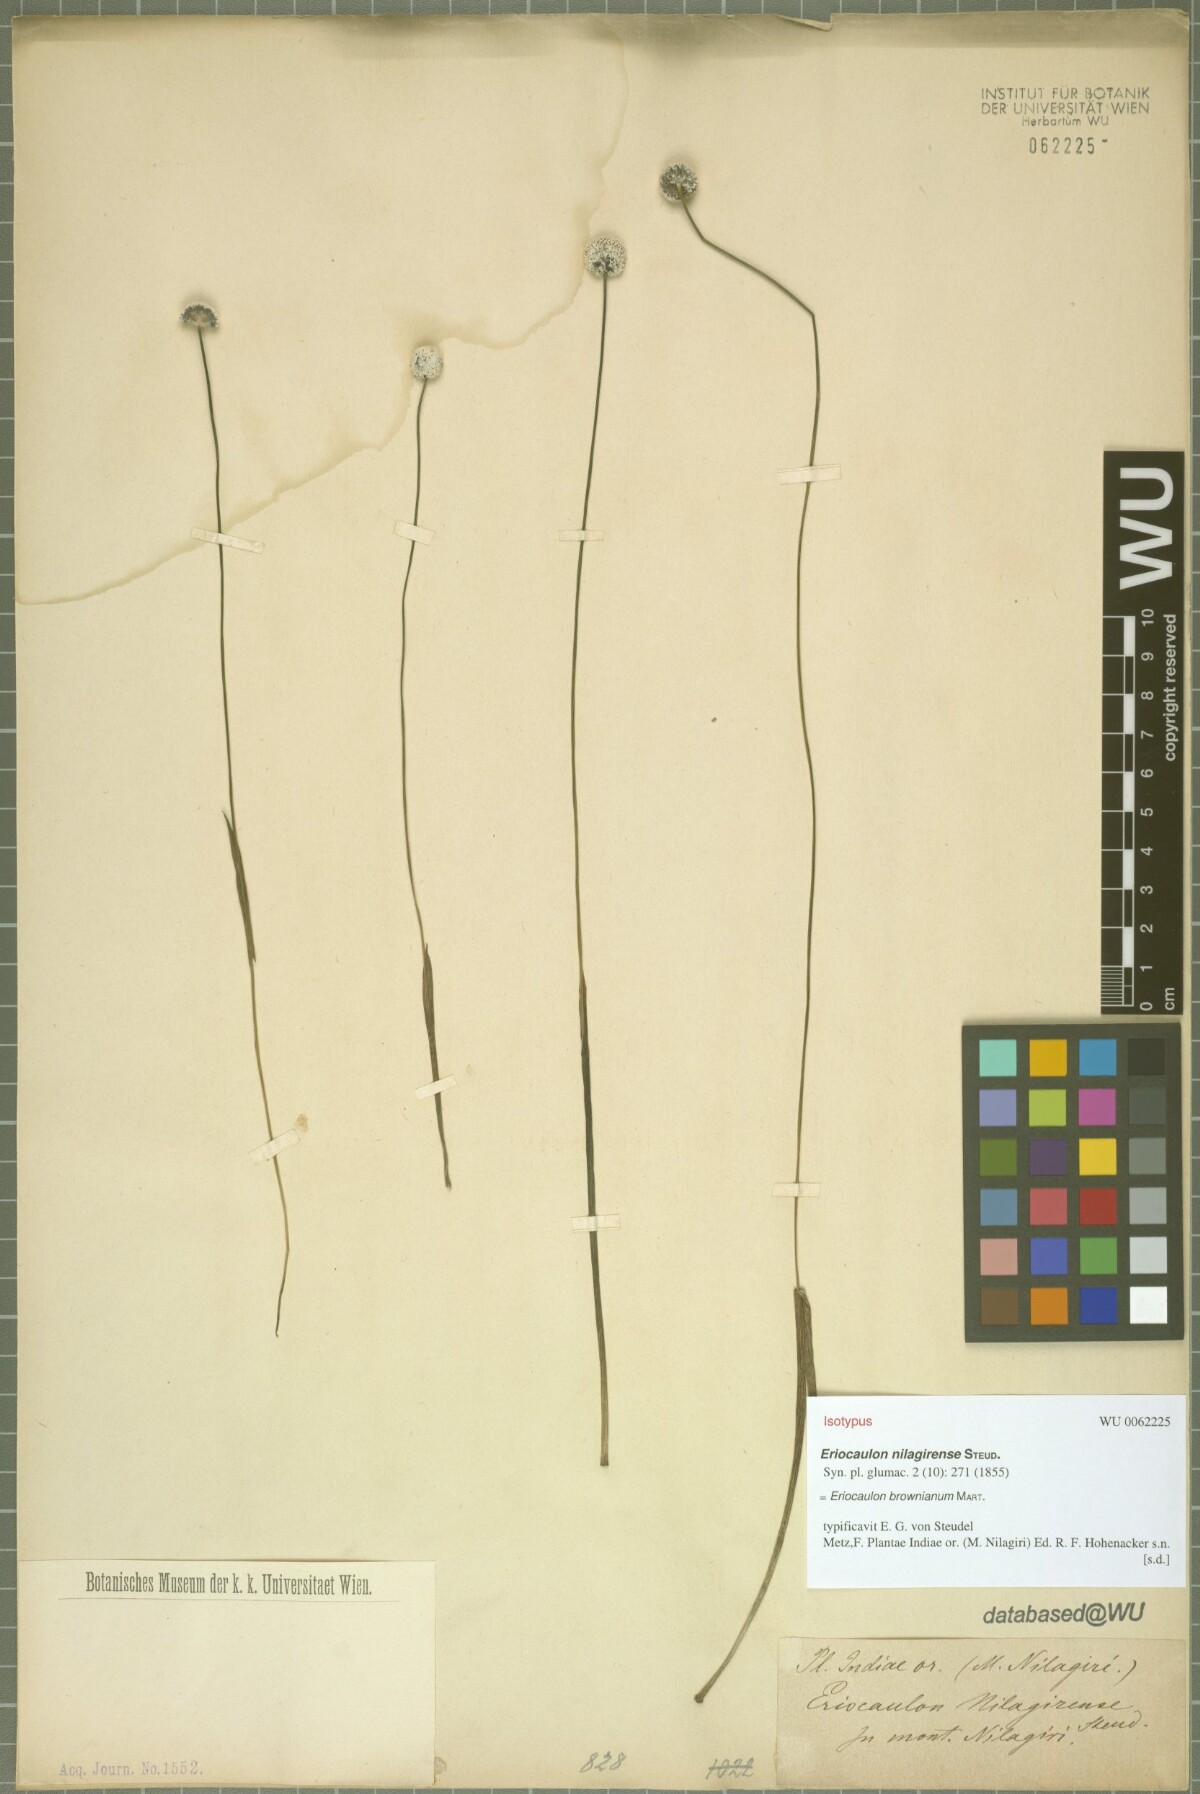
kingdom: Plantae
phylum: Tracheophyta
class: Liliopsida
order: Poales
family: Eriocaulaceae
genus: Eriocaulon
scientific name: Eriocaulon brownianum
